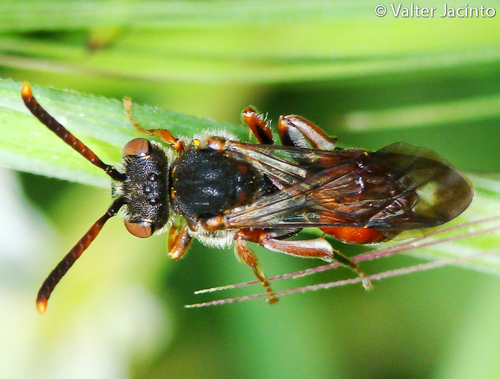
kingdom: Animalia
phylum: Arthropoda
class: Insecta
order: Hymenoptera
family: Apidae
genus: Nomada
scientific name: Nomada integra
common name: Cat's-ear nomad bee
